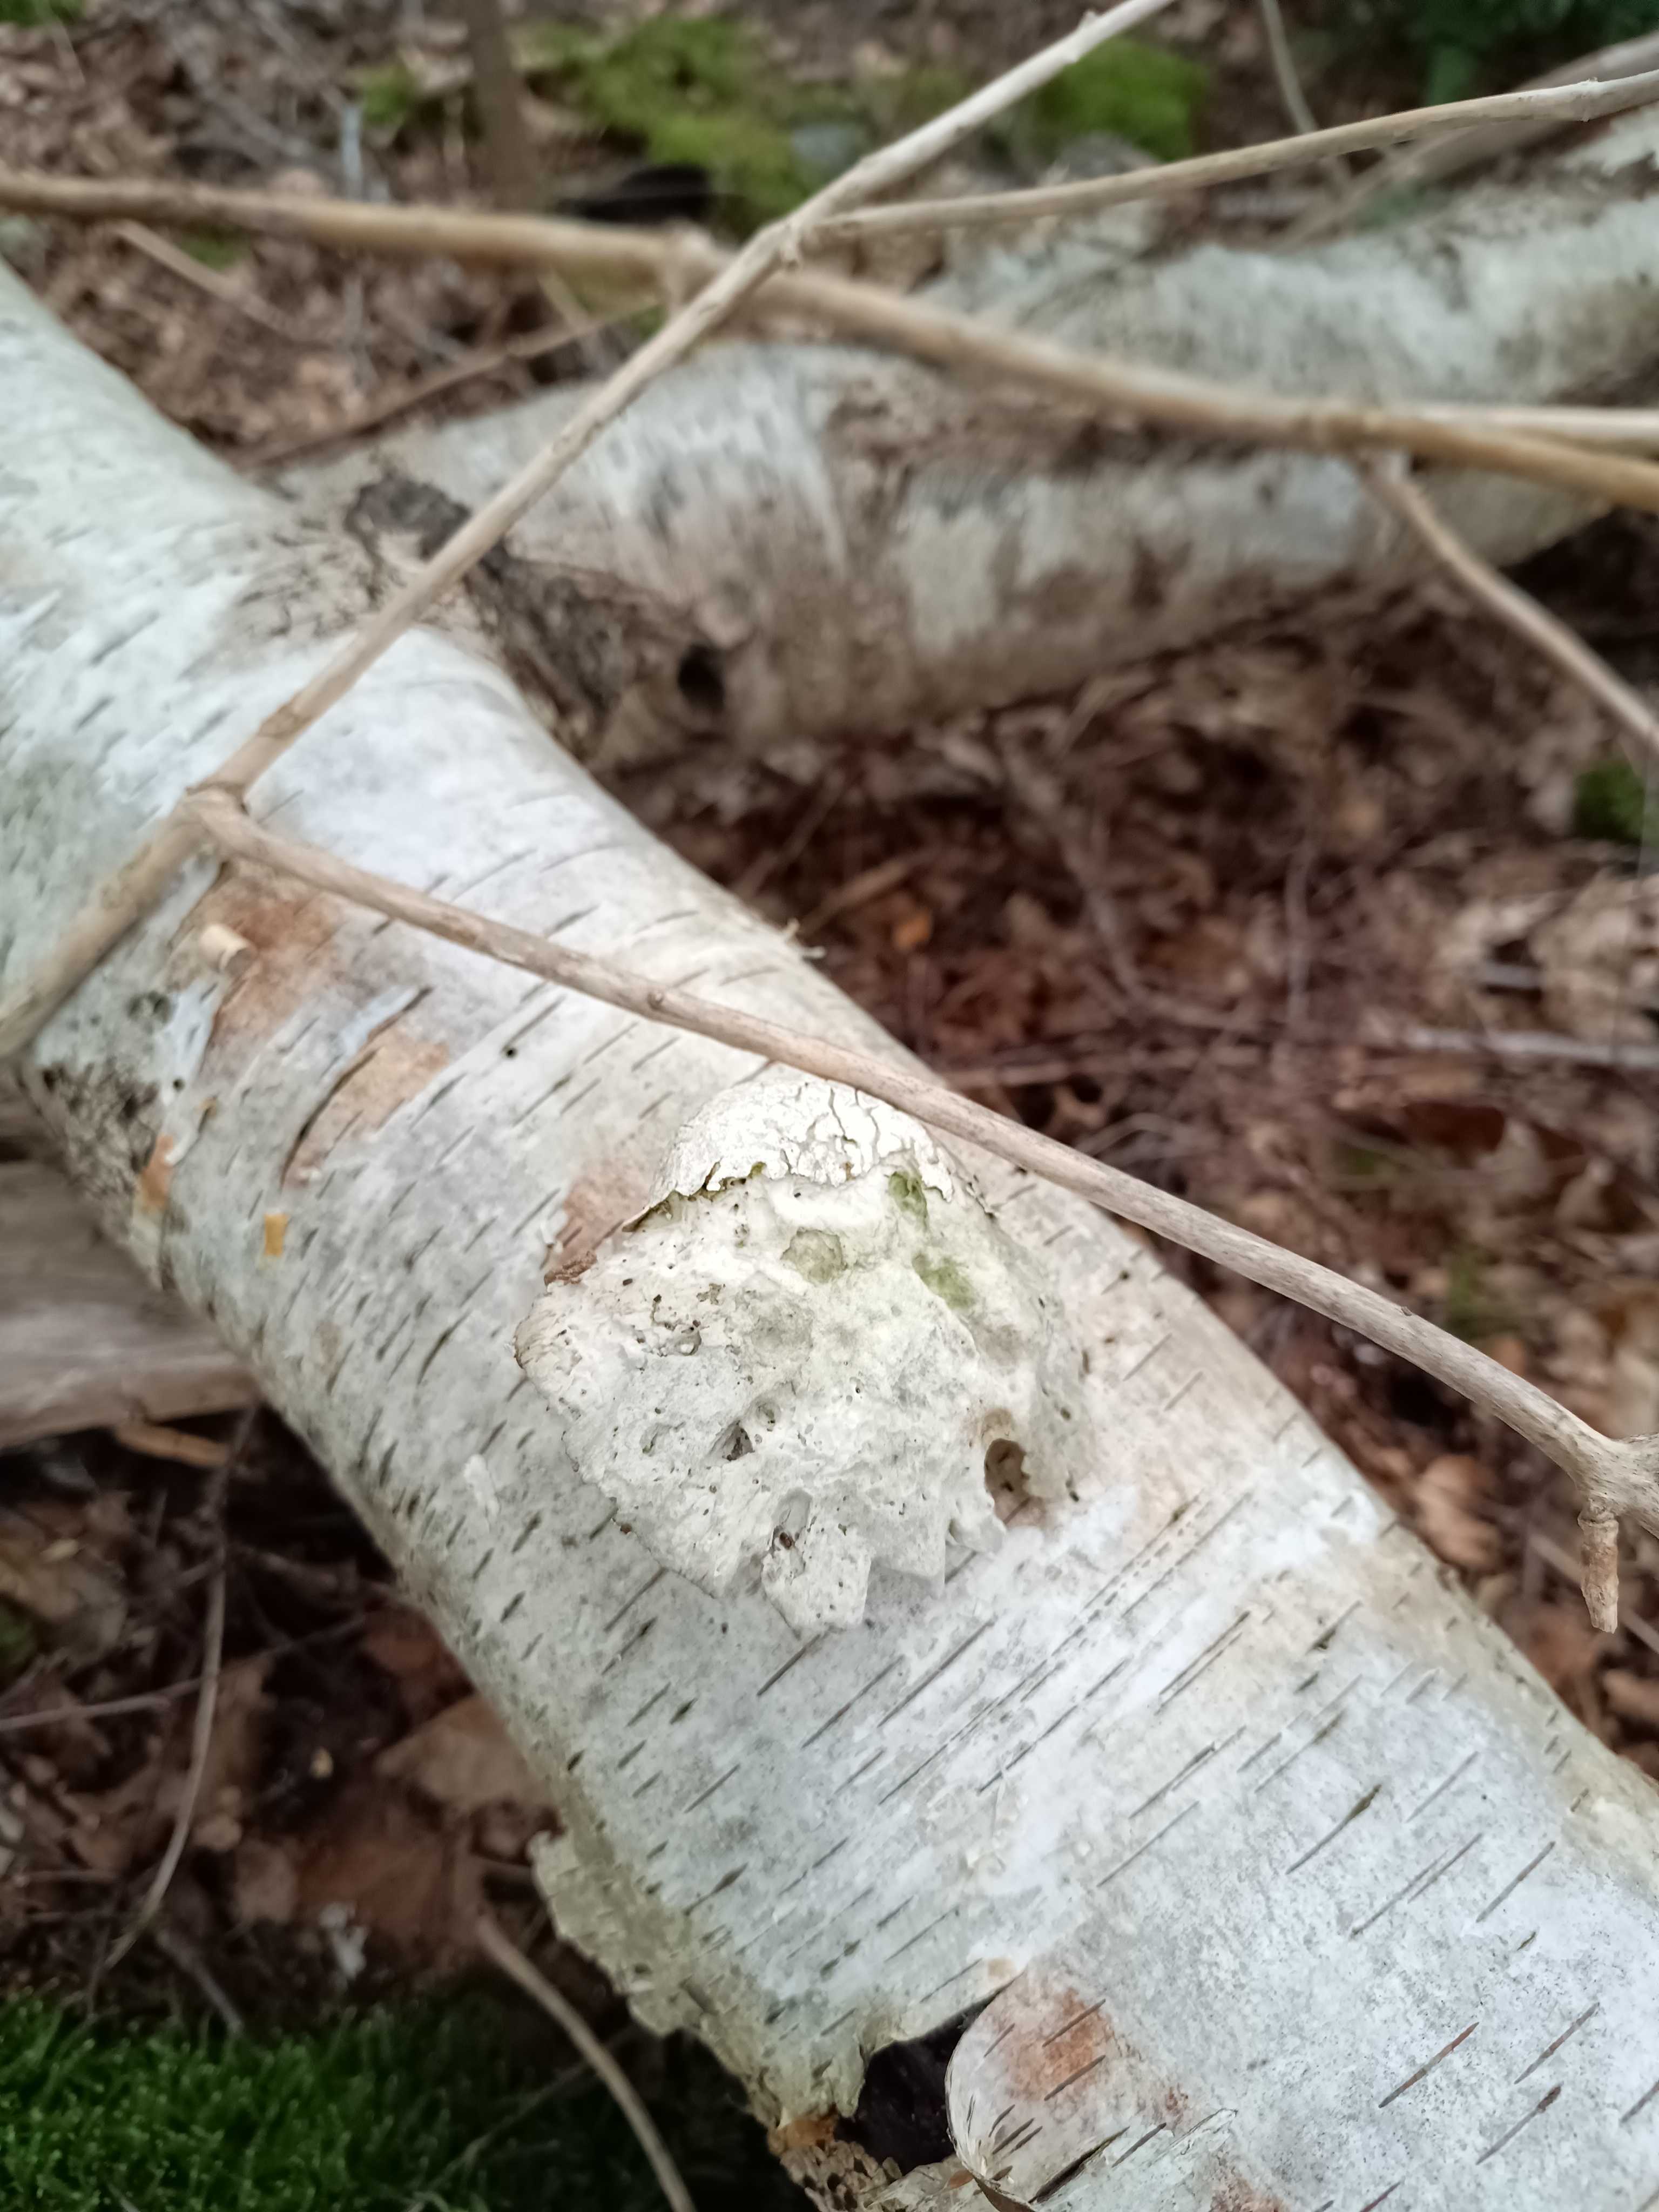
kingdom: Fungi
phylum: Basidiomycota
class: Agaricomycetes
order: Polyporales
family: Fomitopsidaceae
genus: Fomitopsis
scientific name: Fomitopsis betulina
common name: birkeporesvamp
